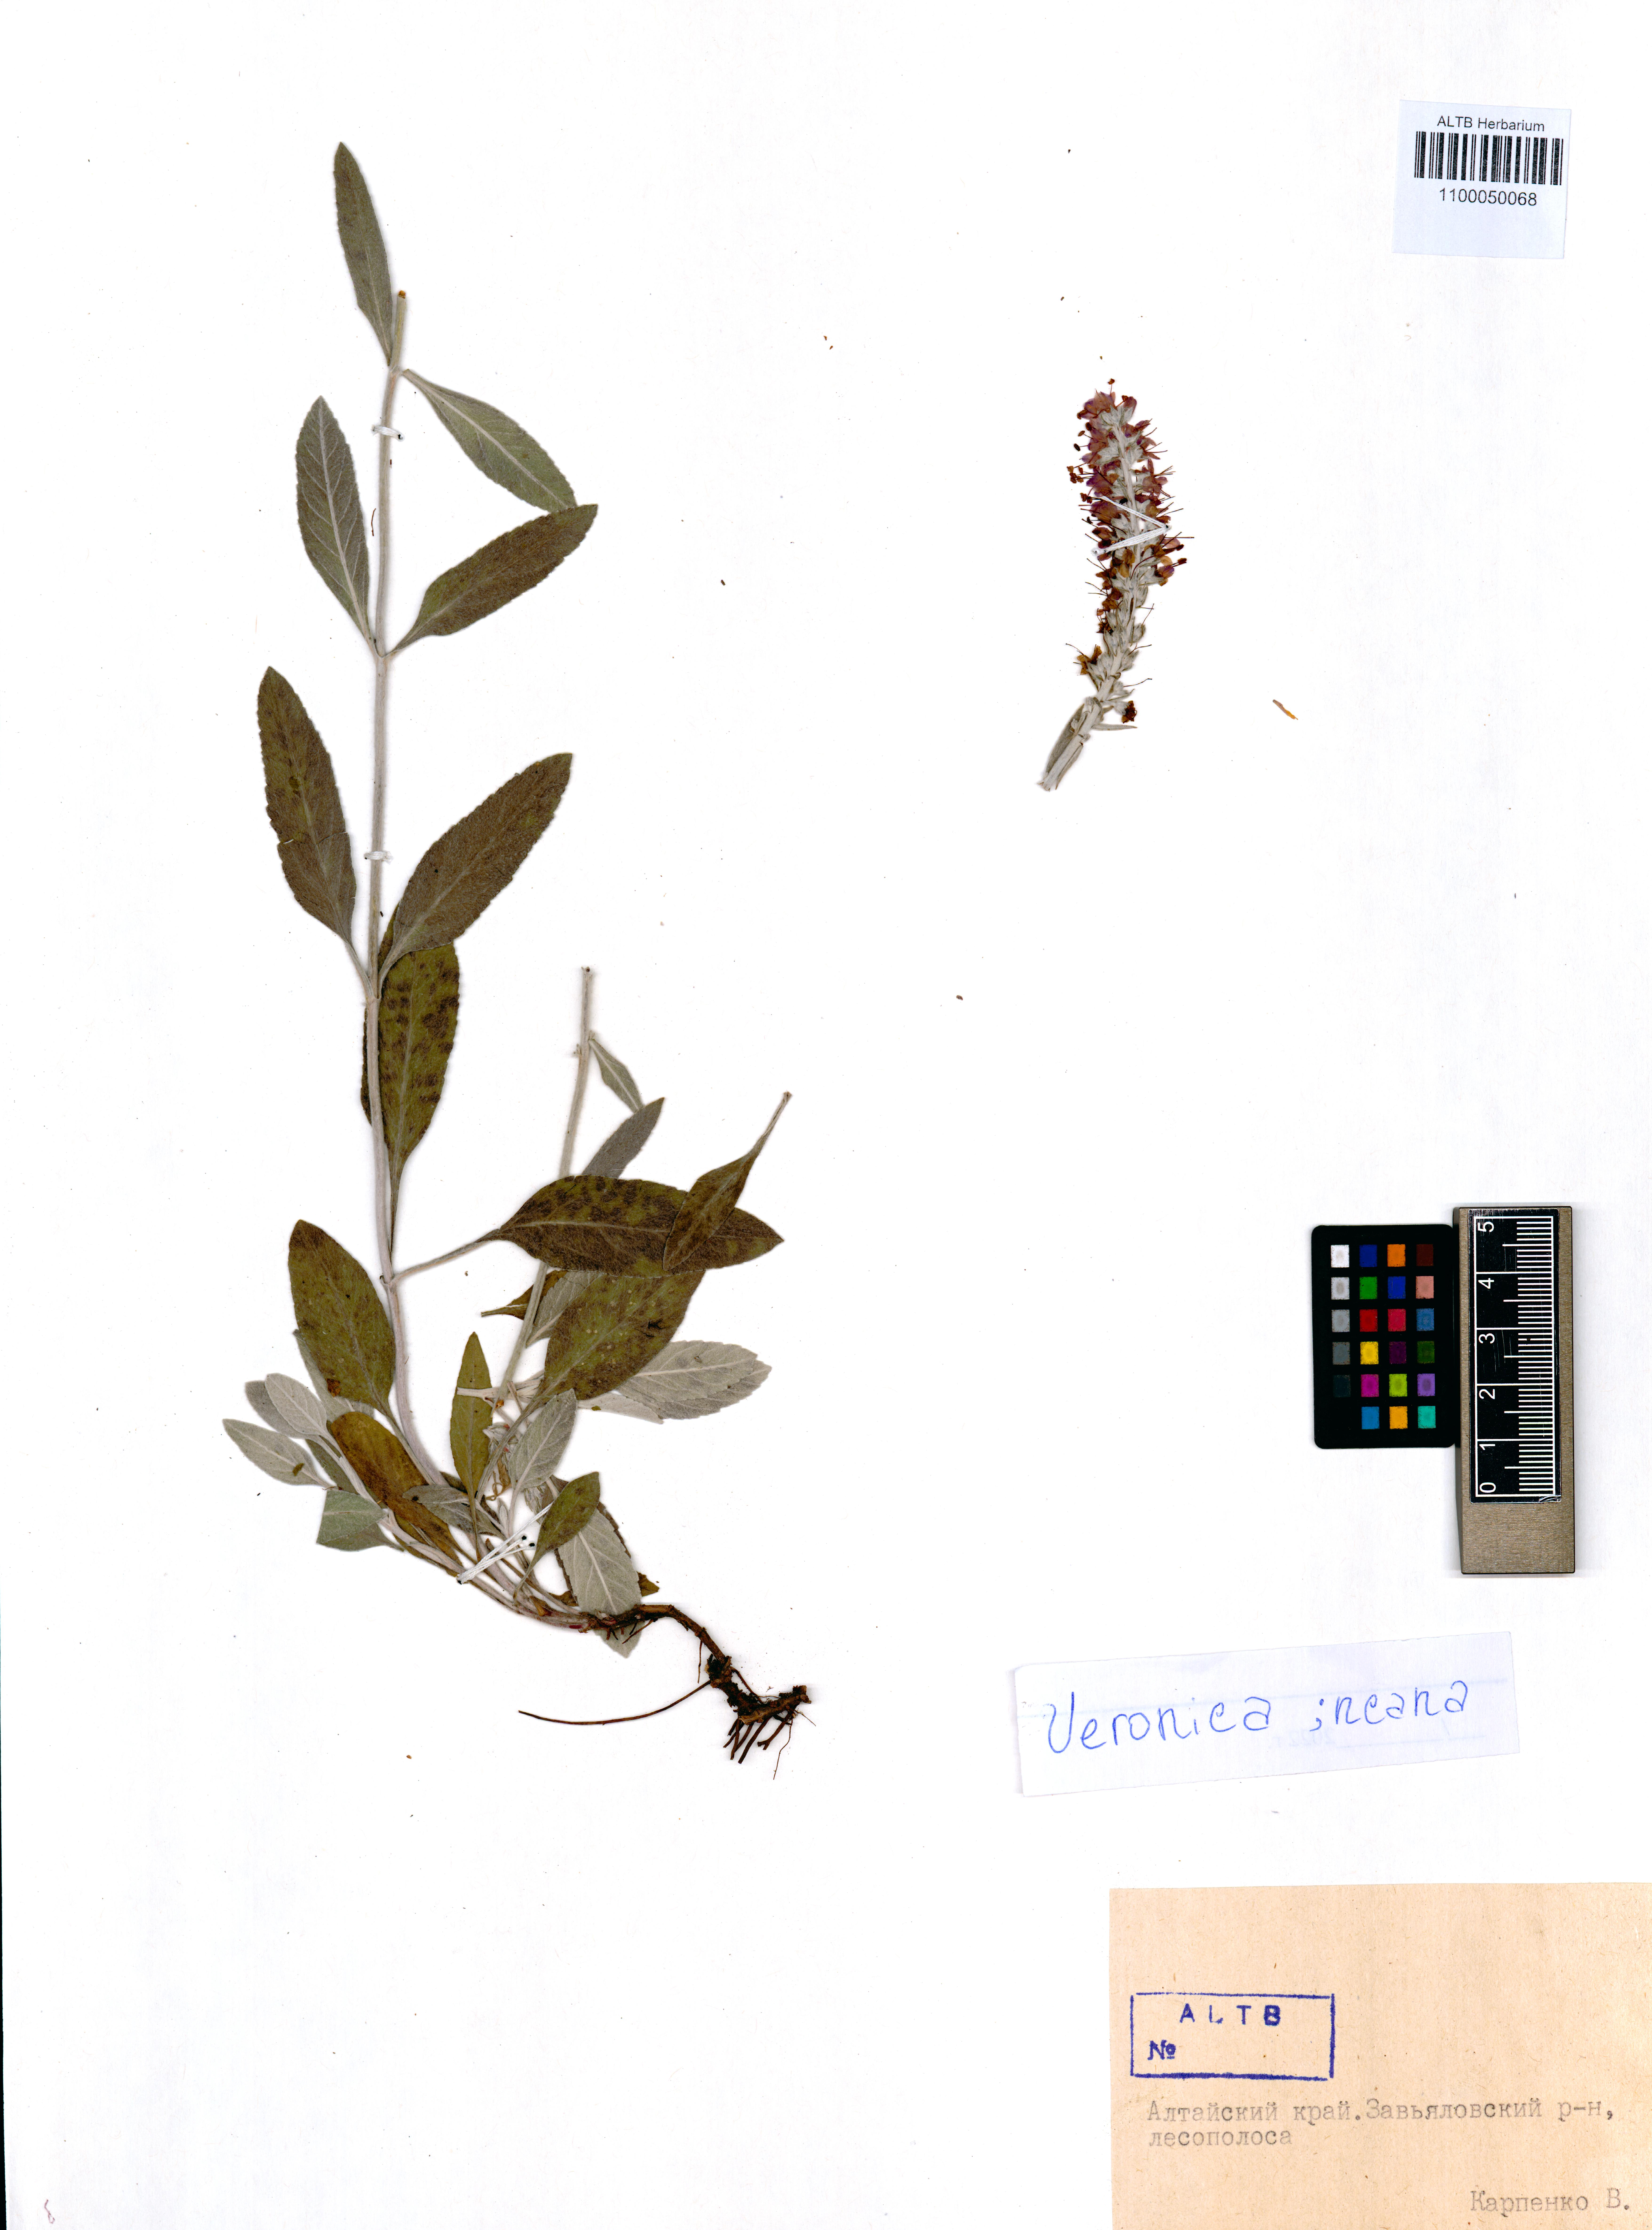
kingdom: Plantae
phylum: Tracheophyta
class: Magnoliopsida
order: Lamiales
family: Plantaginaceae
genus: Veronica
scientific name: Veronica incana
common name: Silver speedwell
